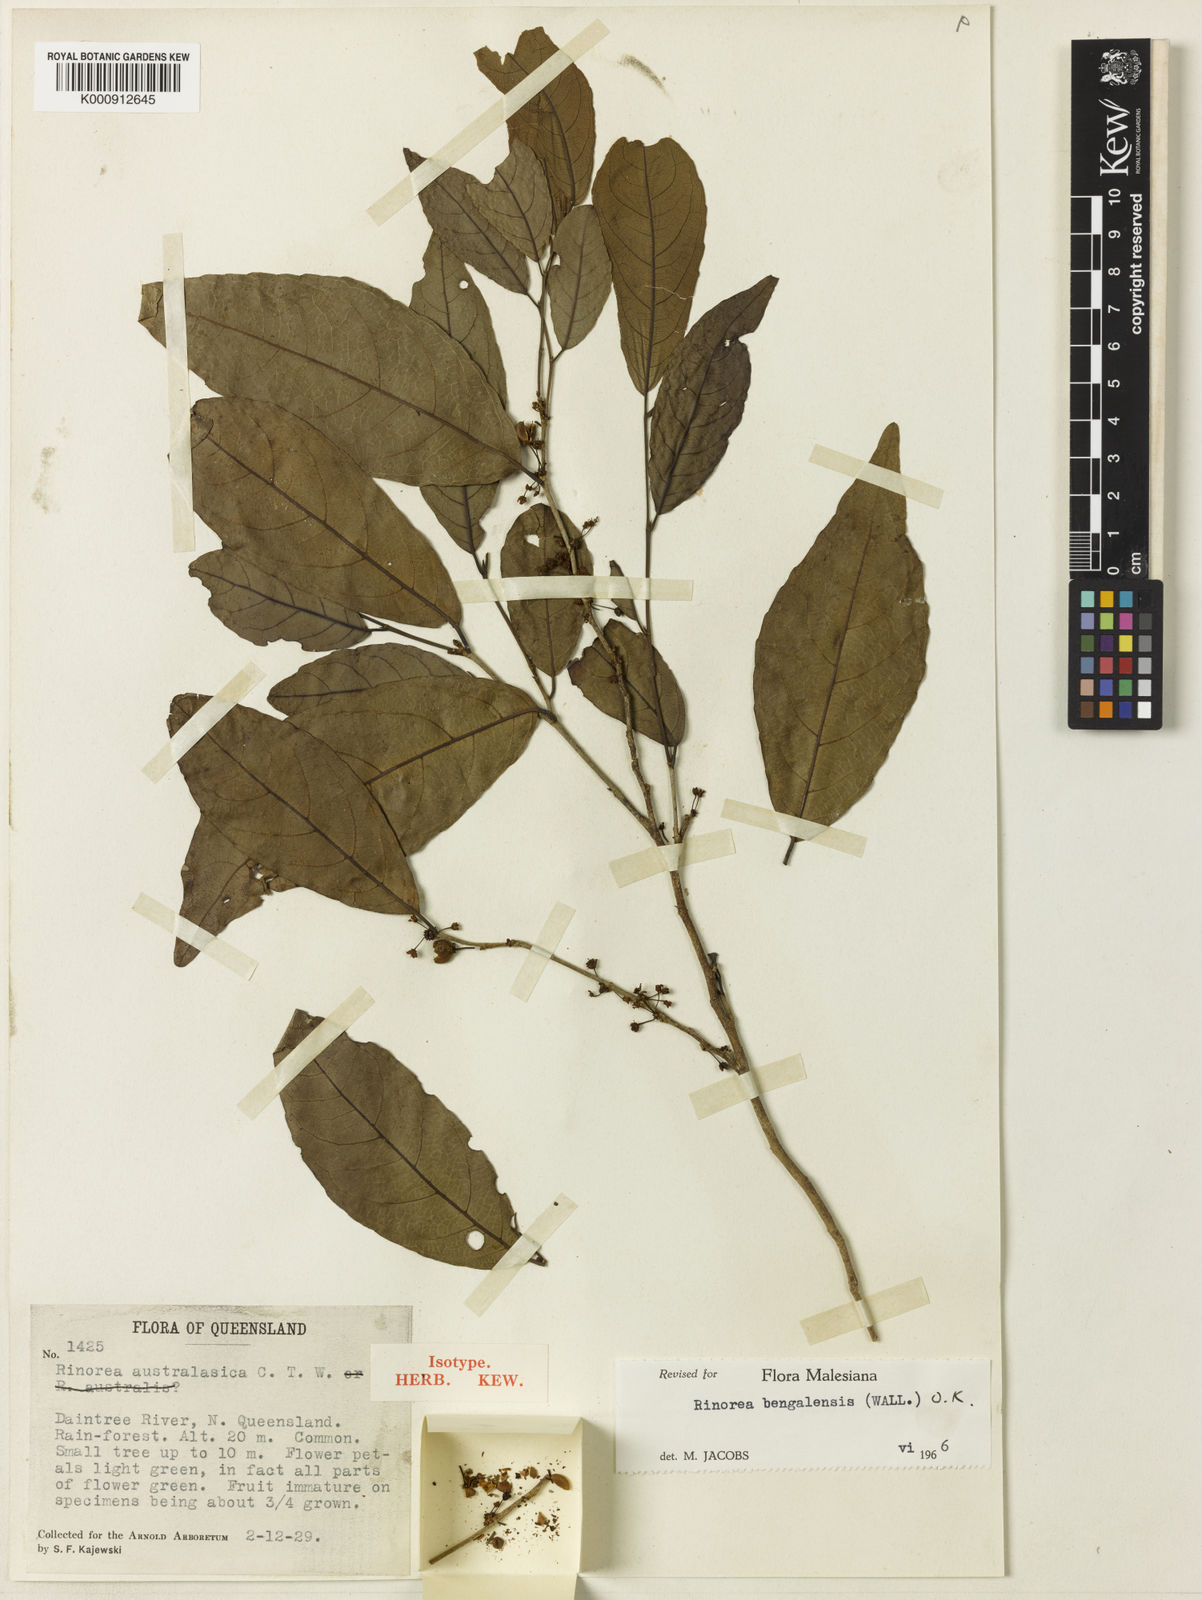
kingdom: Plantae
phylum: Tracheophyta
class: Magnoliopsida
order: Malpighiales
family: Violaceae
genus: Rinorea
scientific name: Rinorea bengalensis
